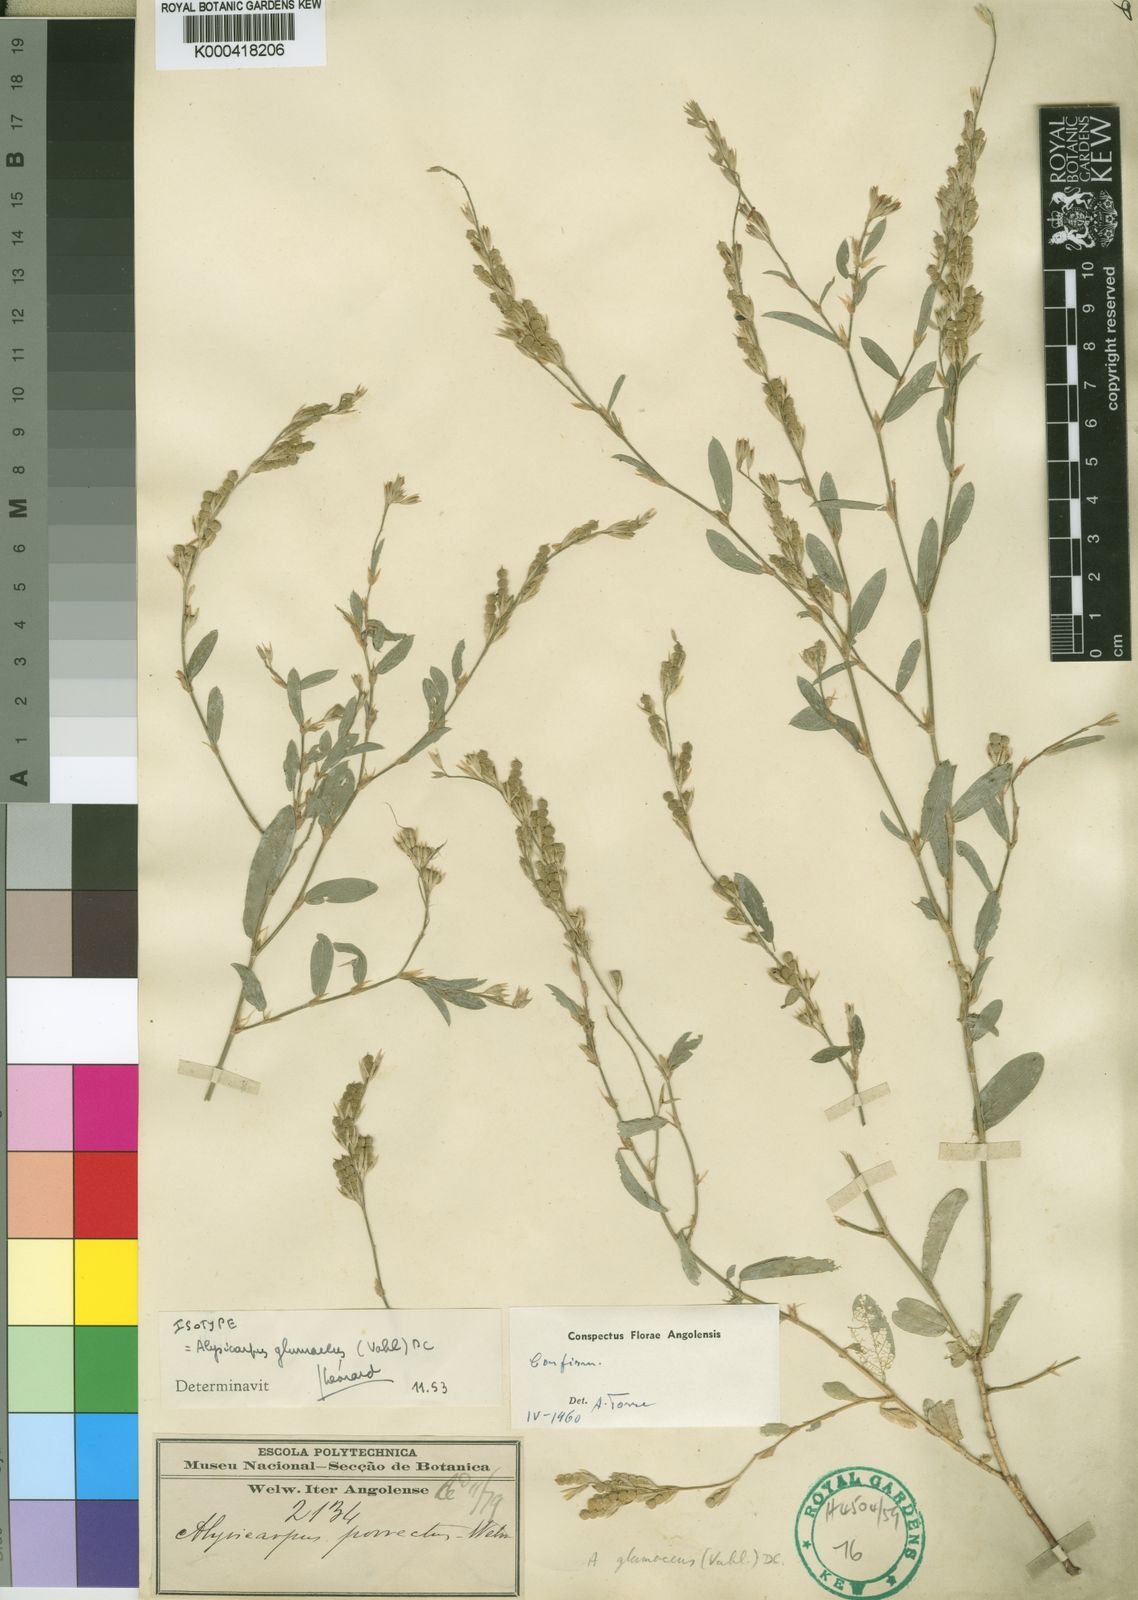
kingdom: Plantae
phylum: Tracheophyta
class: Magnoliopsida
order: Fabales
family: Fabaceae
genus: Alysicarpus
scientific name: Alysicarpus glumaceus
